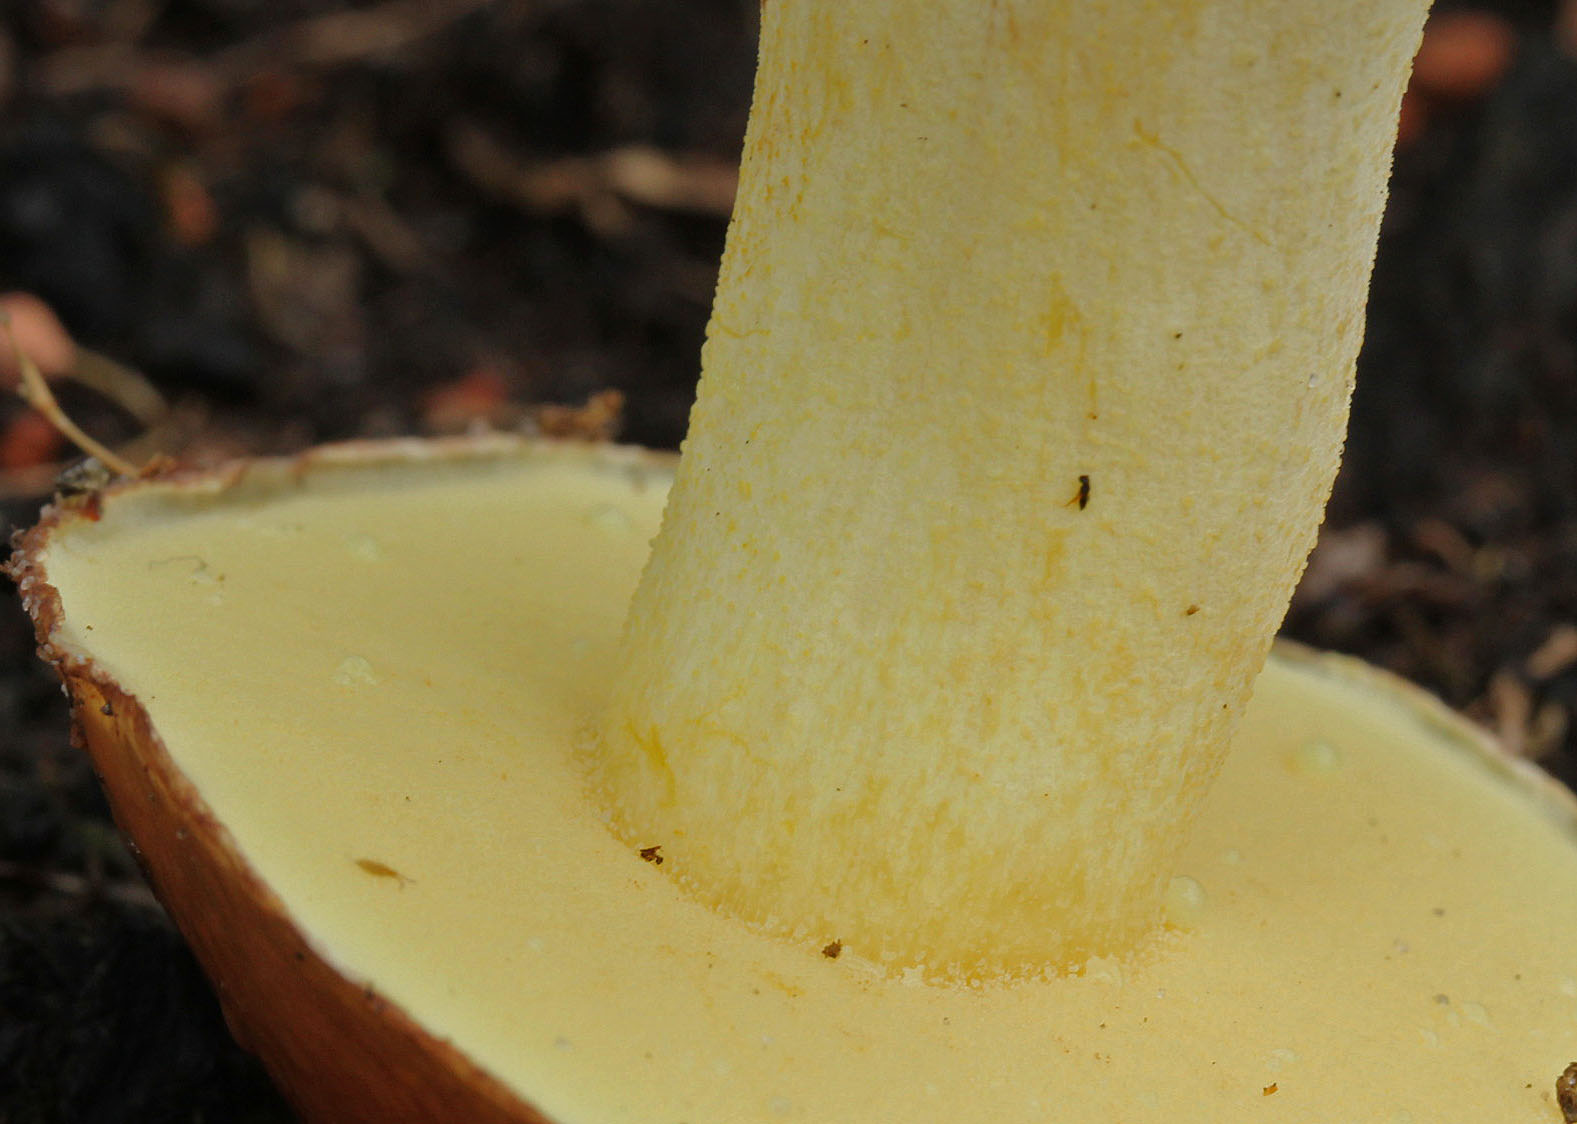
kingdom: Fungi
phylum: Basidiomycota
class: Agaricomycetes
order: Boletales
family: Suillaceae
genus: Suillus
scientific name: Suillus granulatus
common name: kornet slimrørhat
